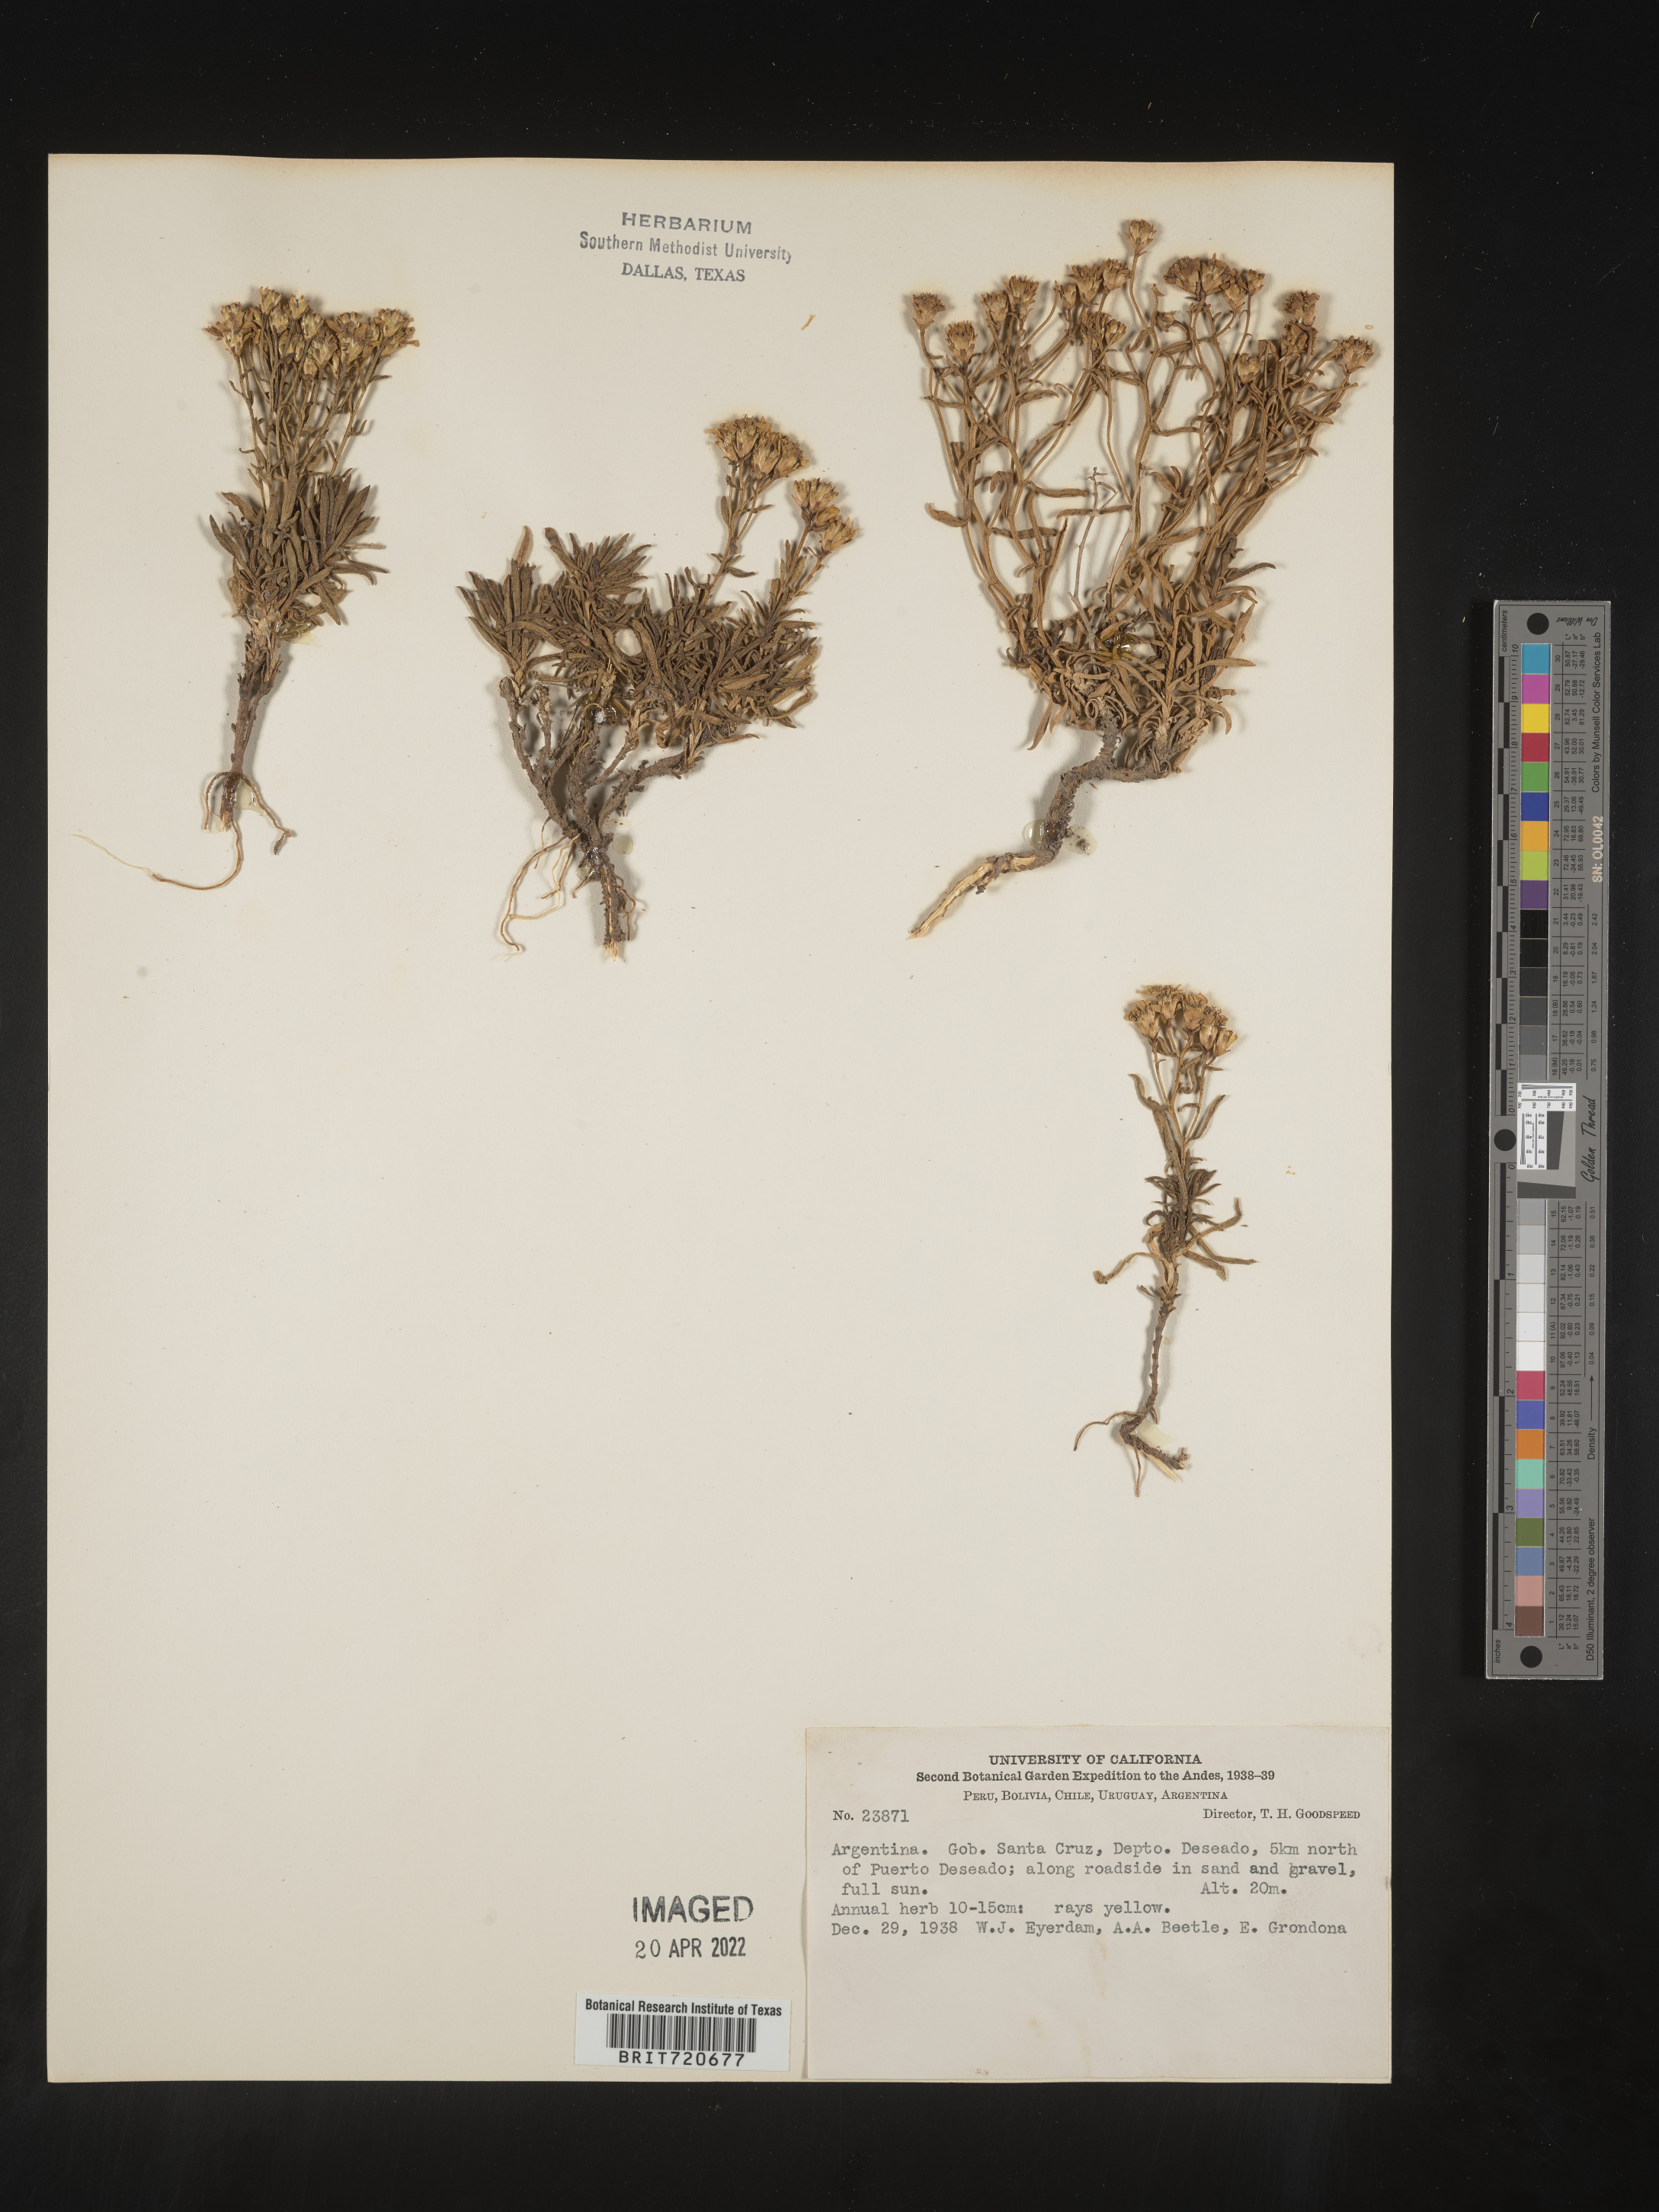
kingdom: Plantae
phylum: Tracheophyta
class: Magnoliopsida
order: Asterales
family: Asteraceae
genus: Gutierrezia
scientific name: Gutierrezia
